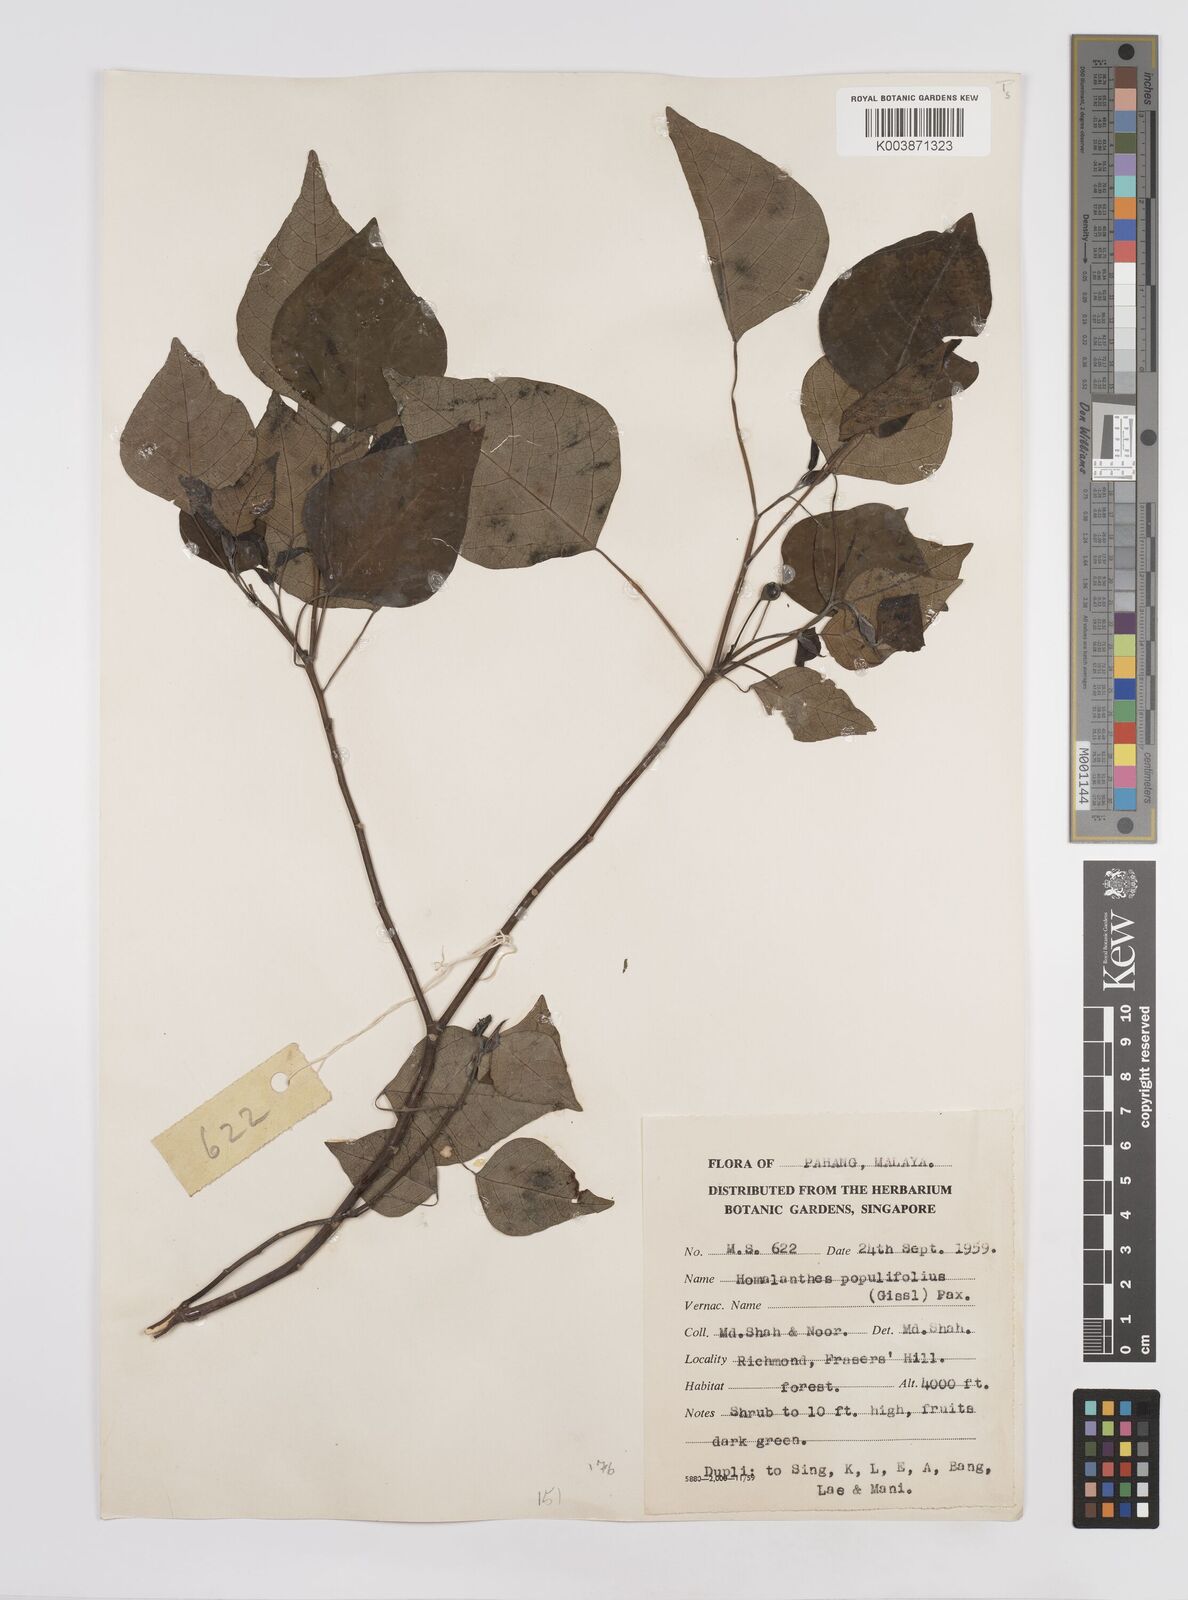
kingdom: Plantae
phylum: Tracheophyta
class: Magnoliopsida
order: Malpighiales
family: Euphorbiaceae
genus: Homalanthus
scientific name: Homalanthus populneus
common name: Spurge
